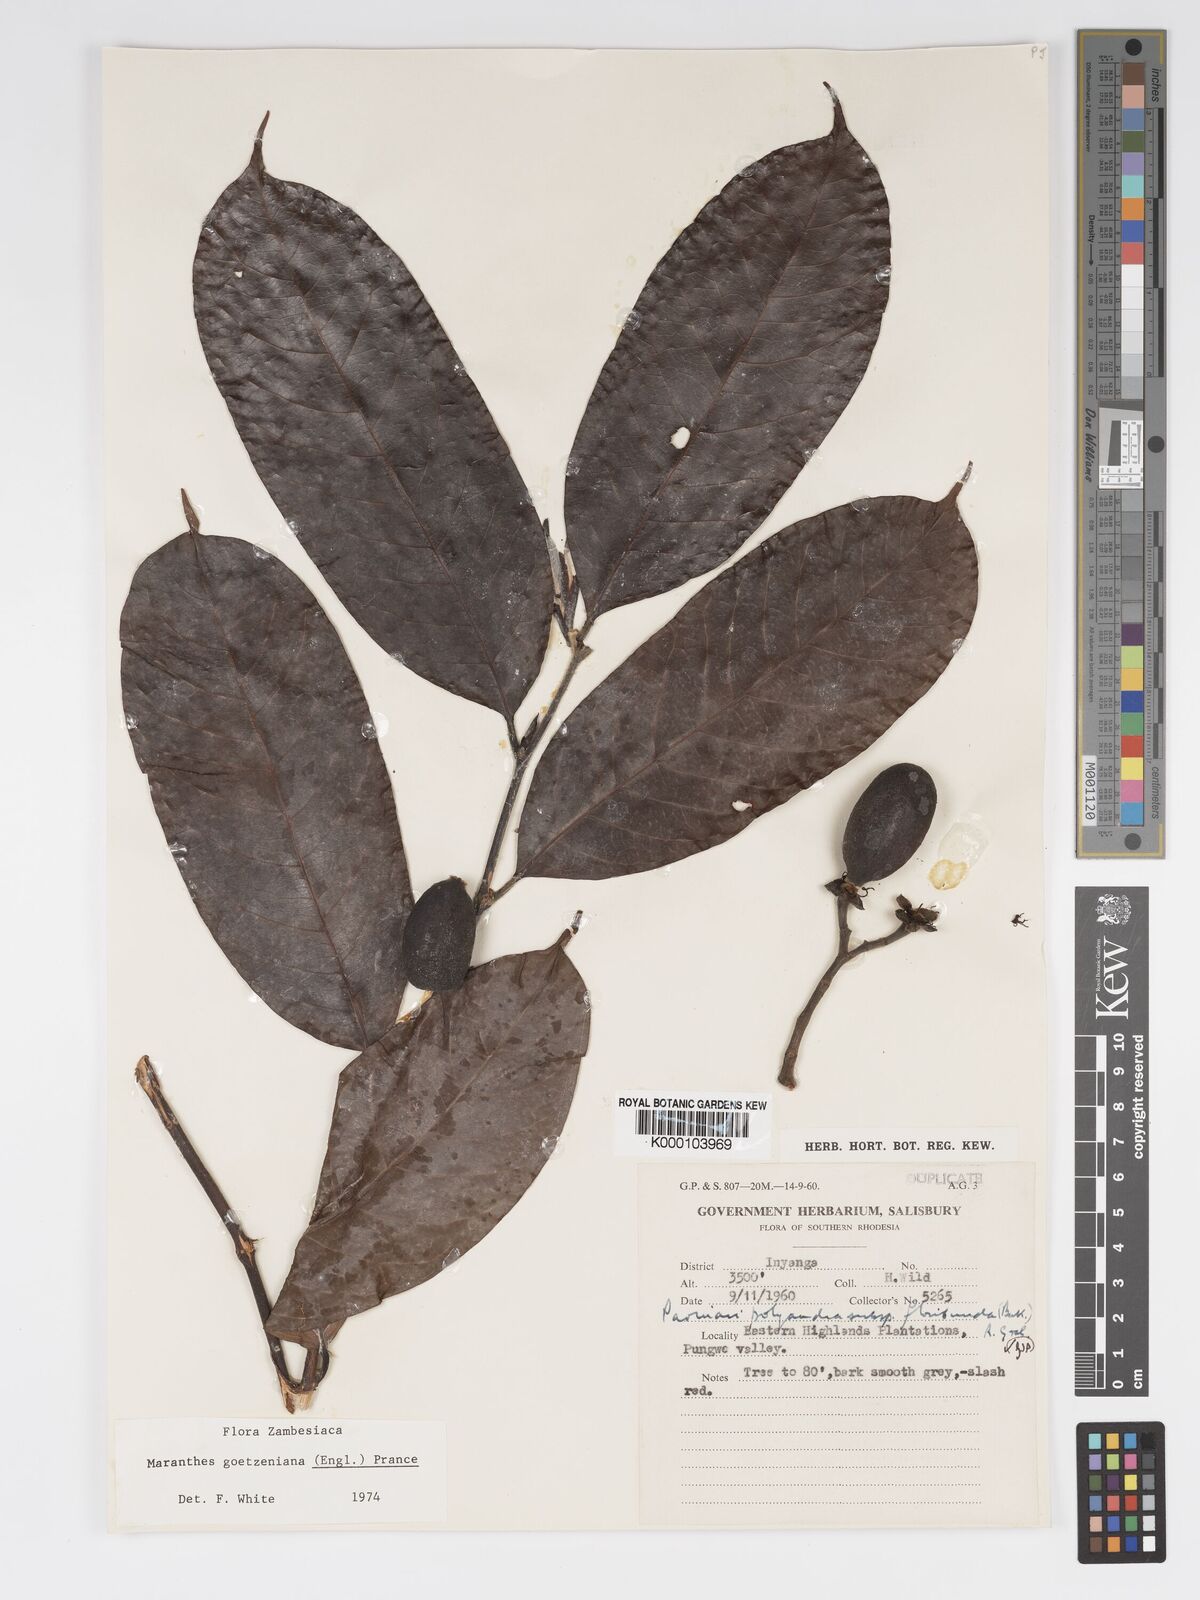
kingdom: Plantae
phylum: Tracheophyta
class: Magnoliopsida
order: Malpighiales
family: Chrysobalanaceae
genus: Maranthes
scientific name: Maranthes goetzeniana
